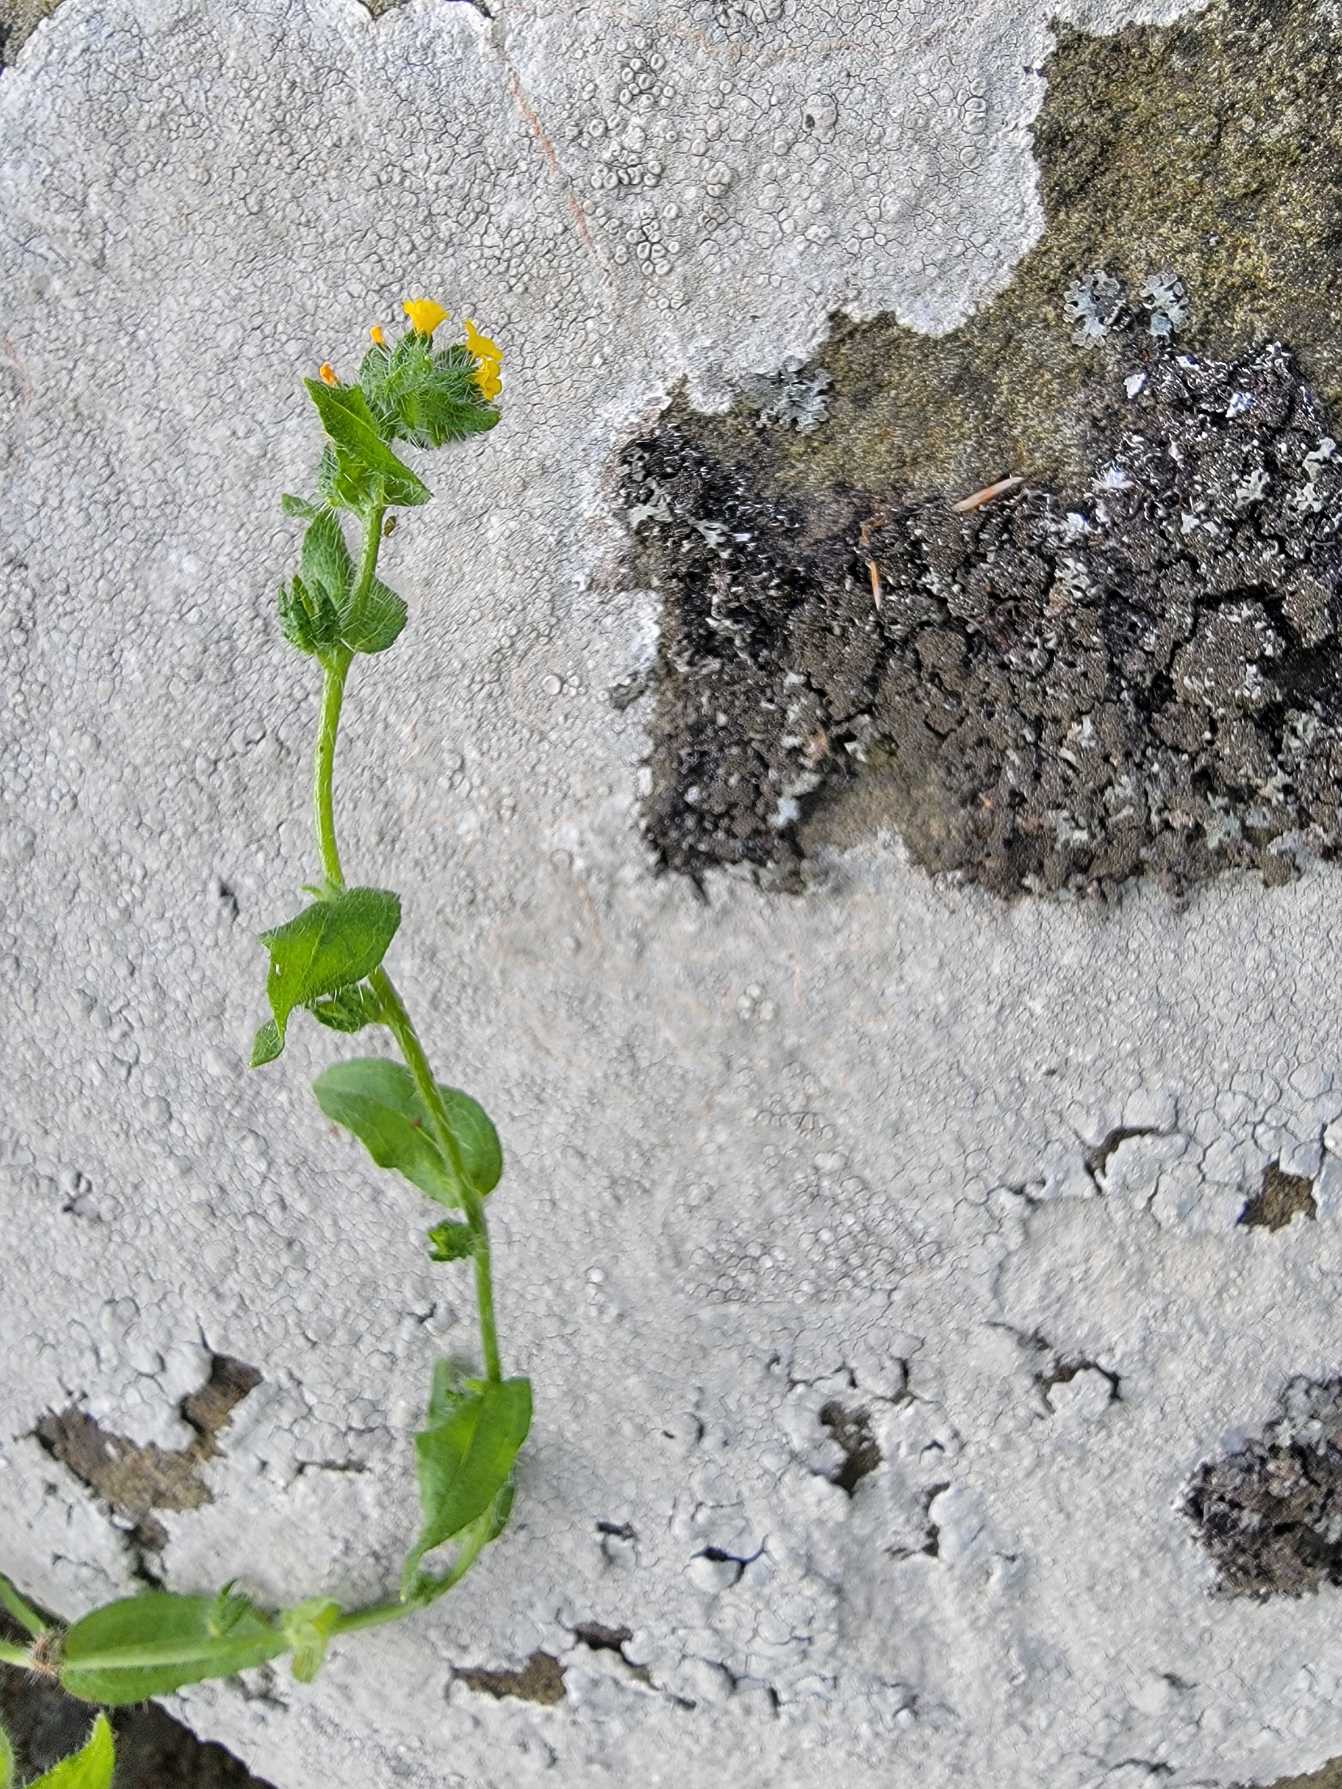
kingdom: Plantae
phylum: Tracheophyta
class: Magnoliopsida
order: Boraginales
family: Boraginaceae
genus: Amsinckia
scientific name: Amsinckia menziesii
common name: Småblomstret gulurt
